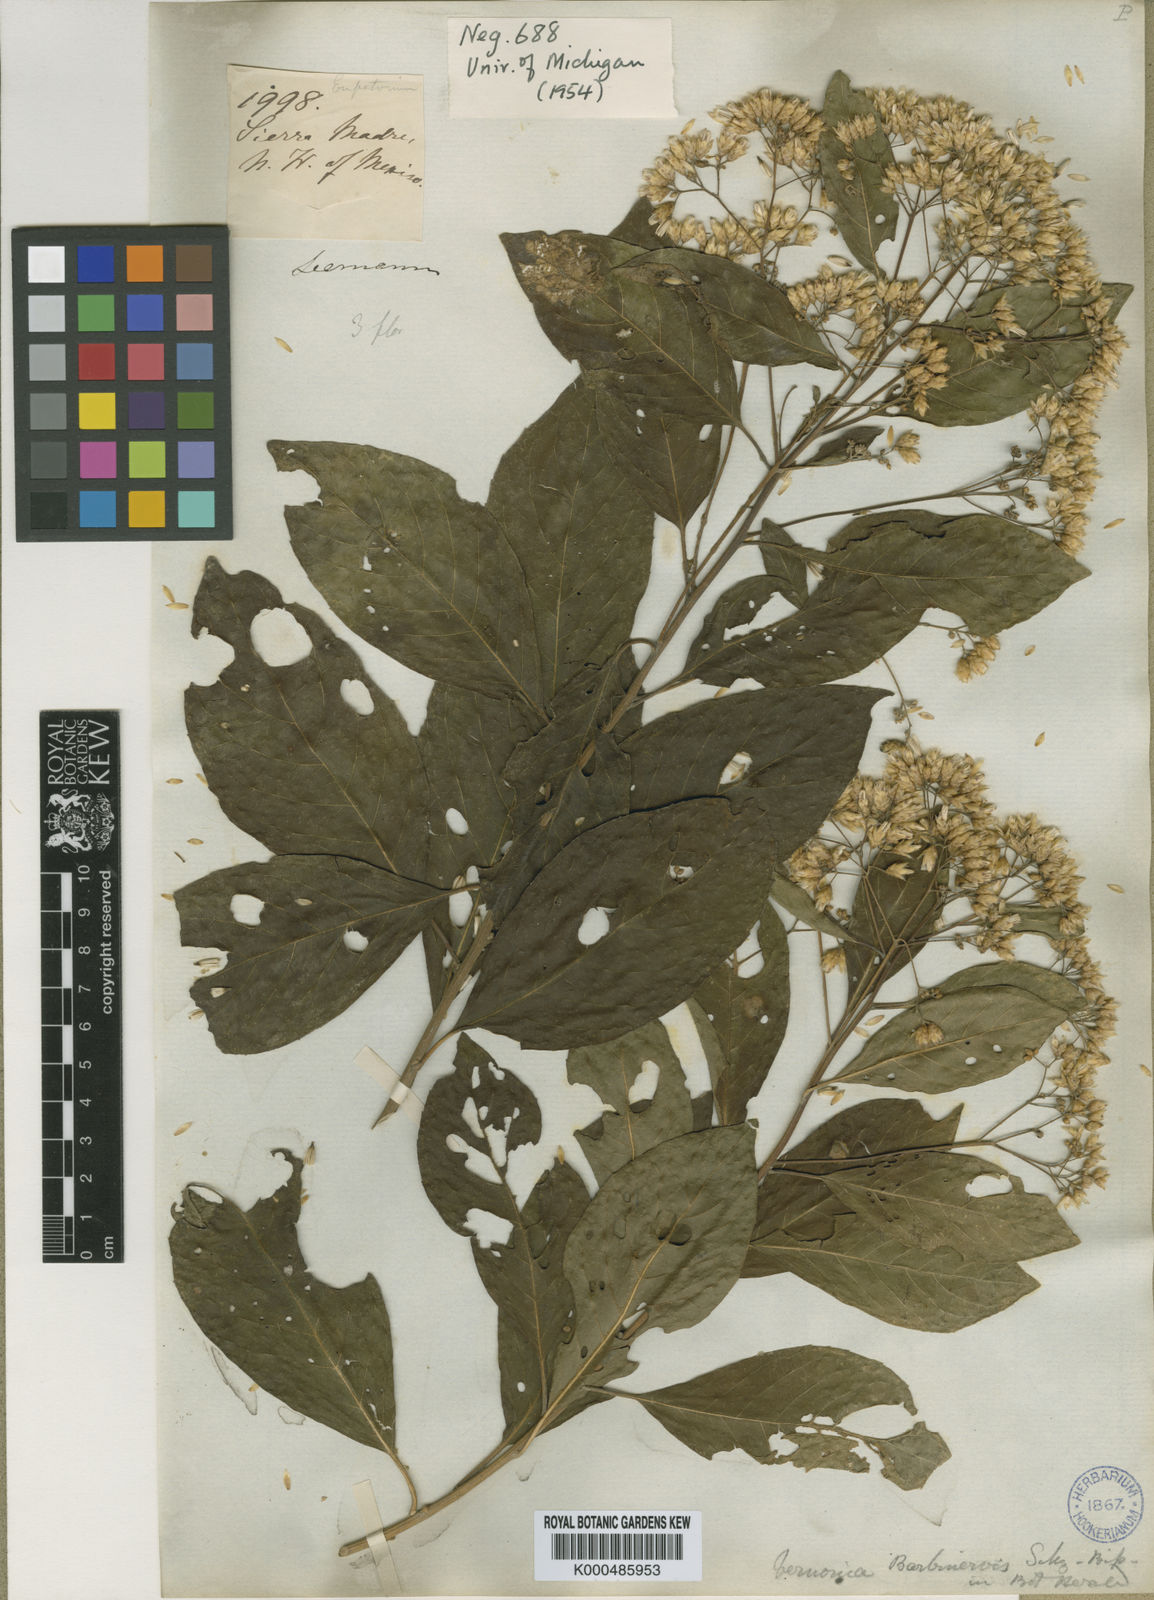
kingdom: Plantae
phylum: Tracheophyta
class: Magnoliopsida
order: Asterales
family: Asteraceae
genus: Eremosis
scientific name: Eremosis barbinervis
